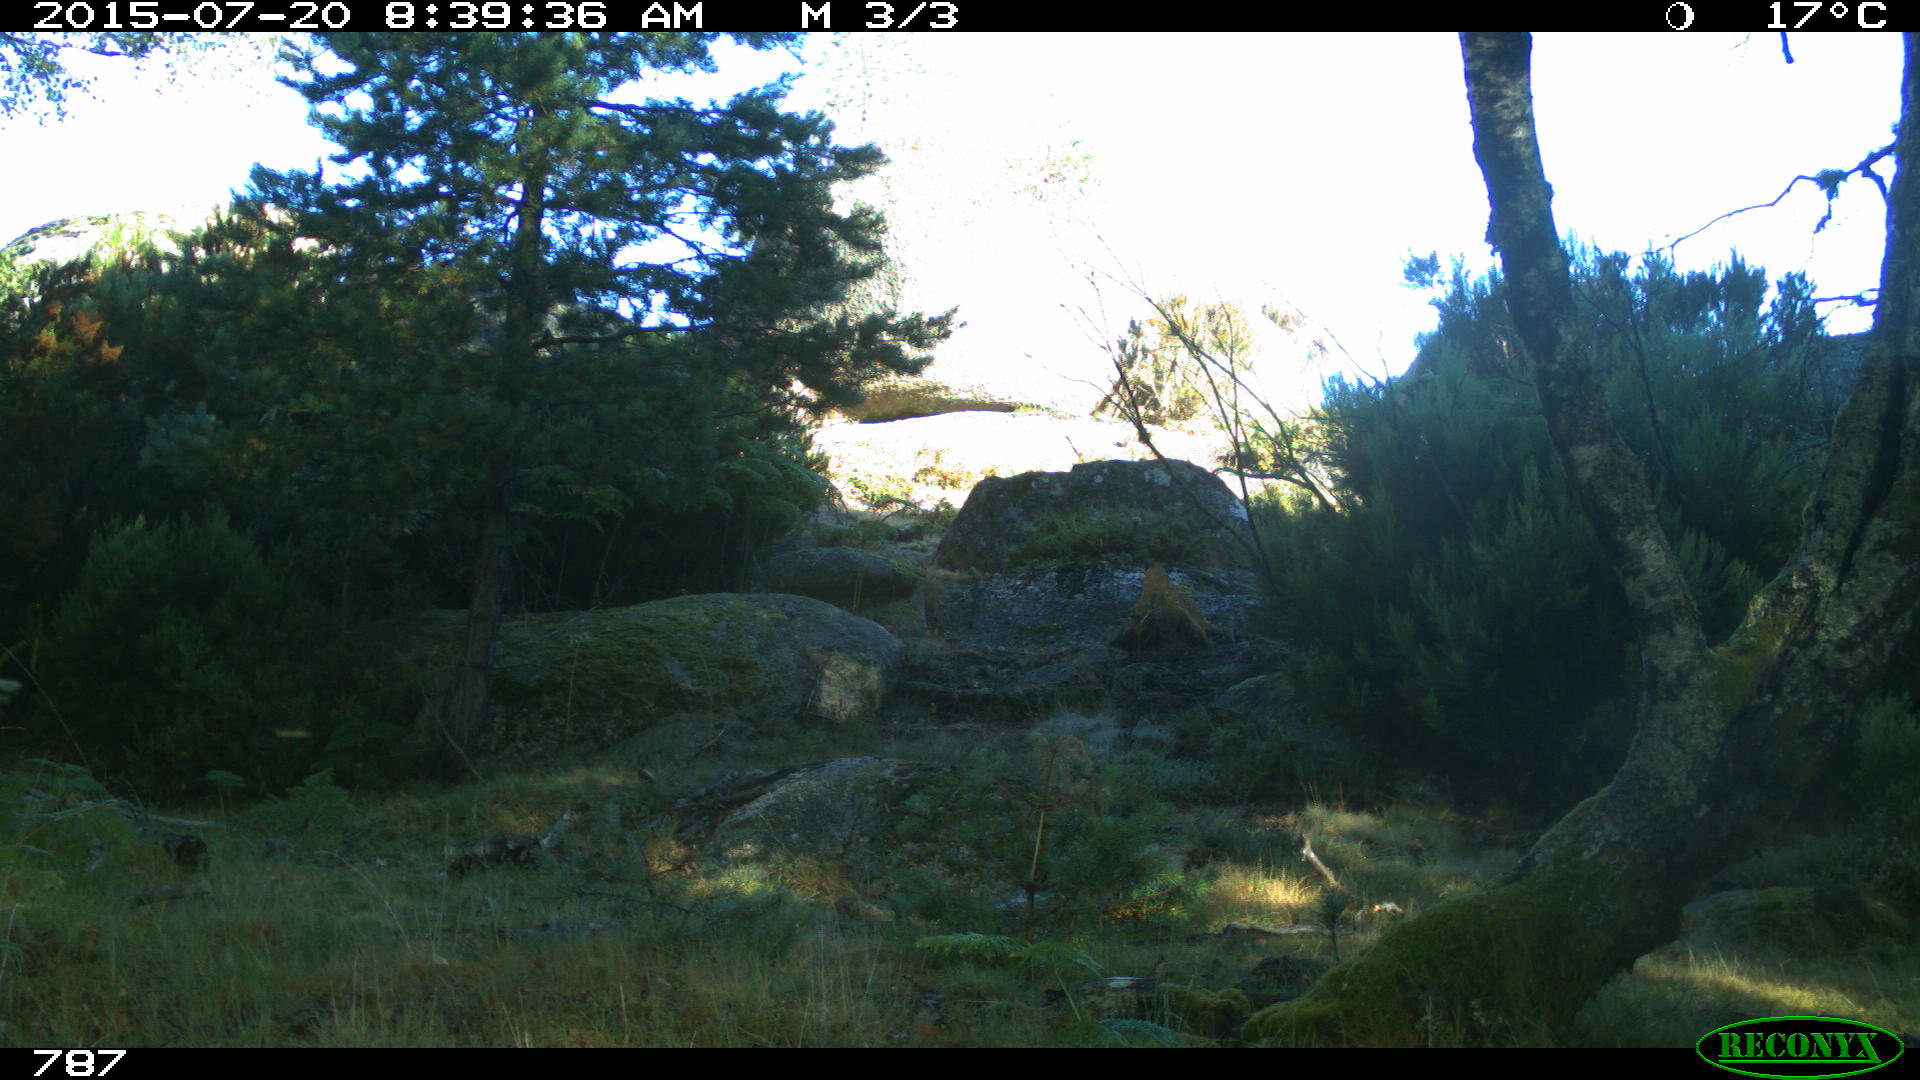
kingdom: Animalia
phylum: Chordata
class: Mammalia
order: Artiodactyla
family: Bovidae
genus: Bos
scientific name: Bos taurus
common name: Domesticated cattle
